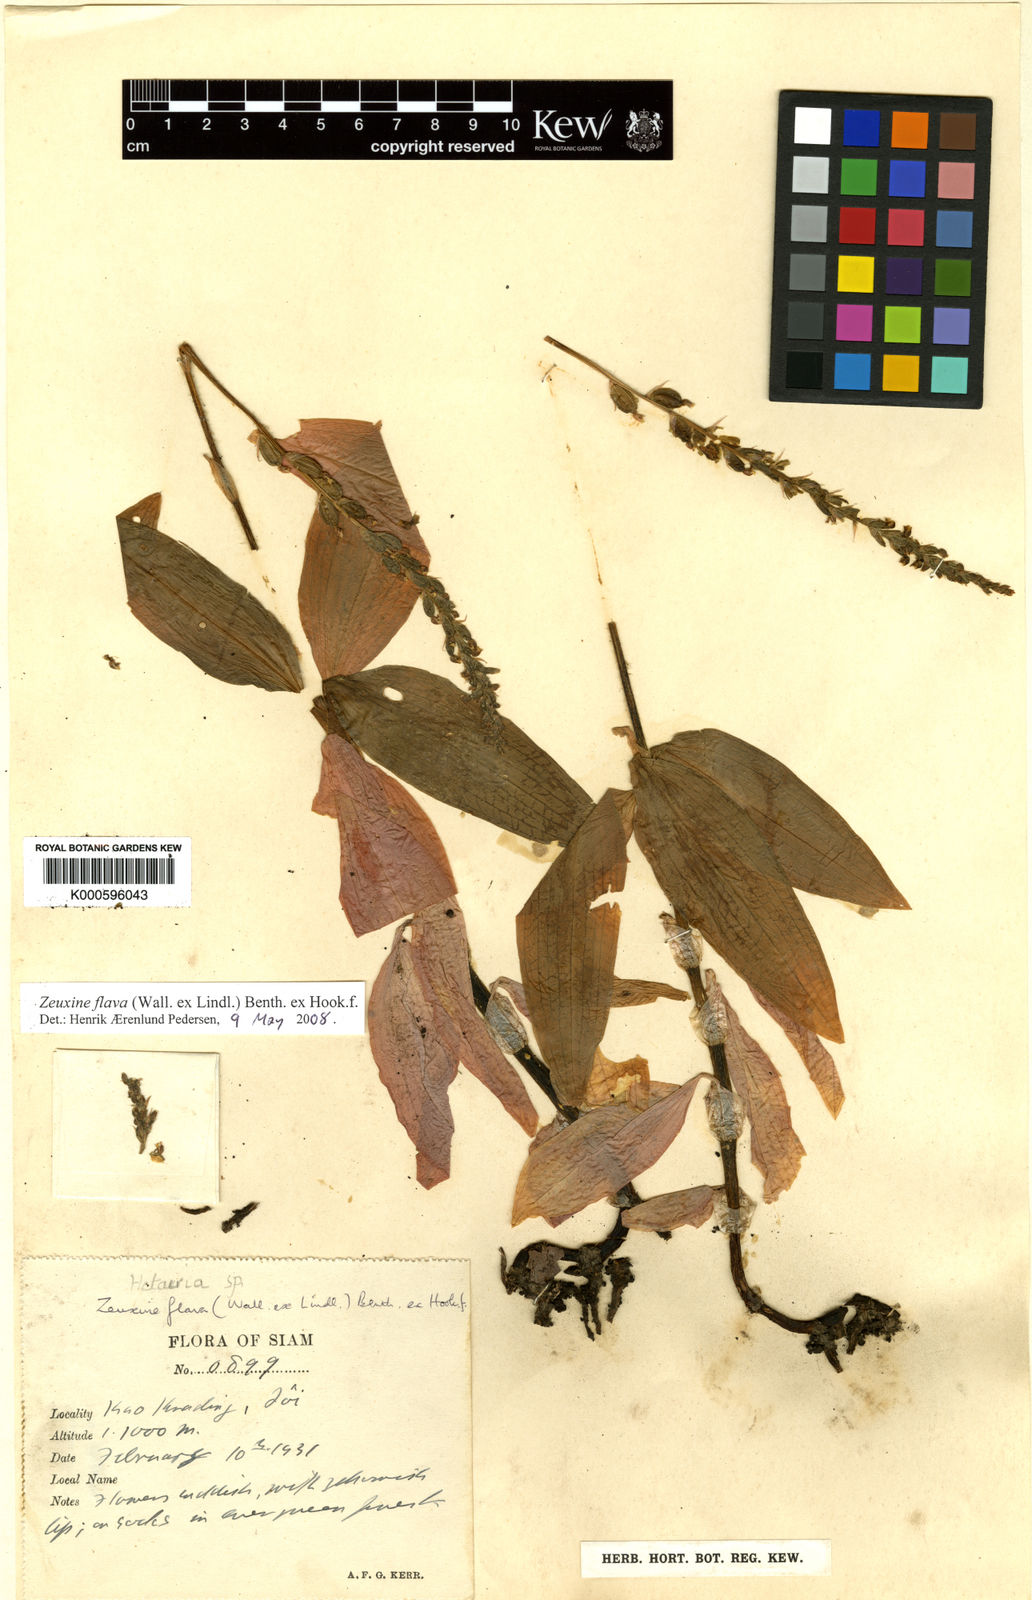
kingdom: Plantae
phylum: Tracheophyta
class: Liliopsida
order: Asparagales
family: Orchidaceae
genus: Zeuxine
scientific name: Zeuxine
